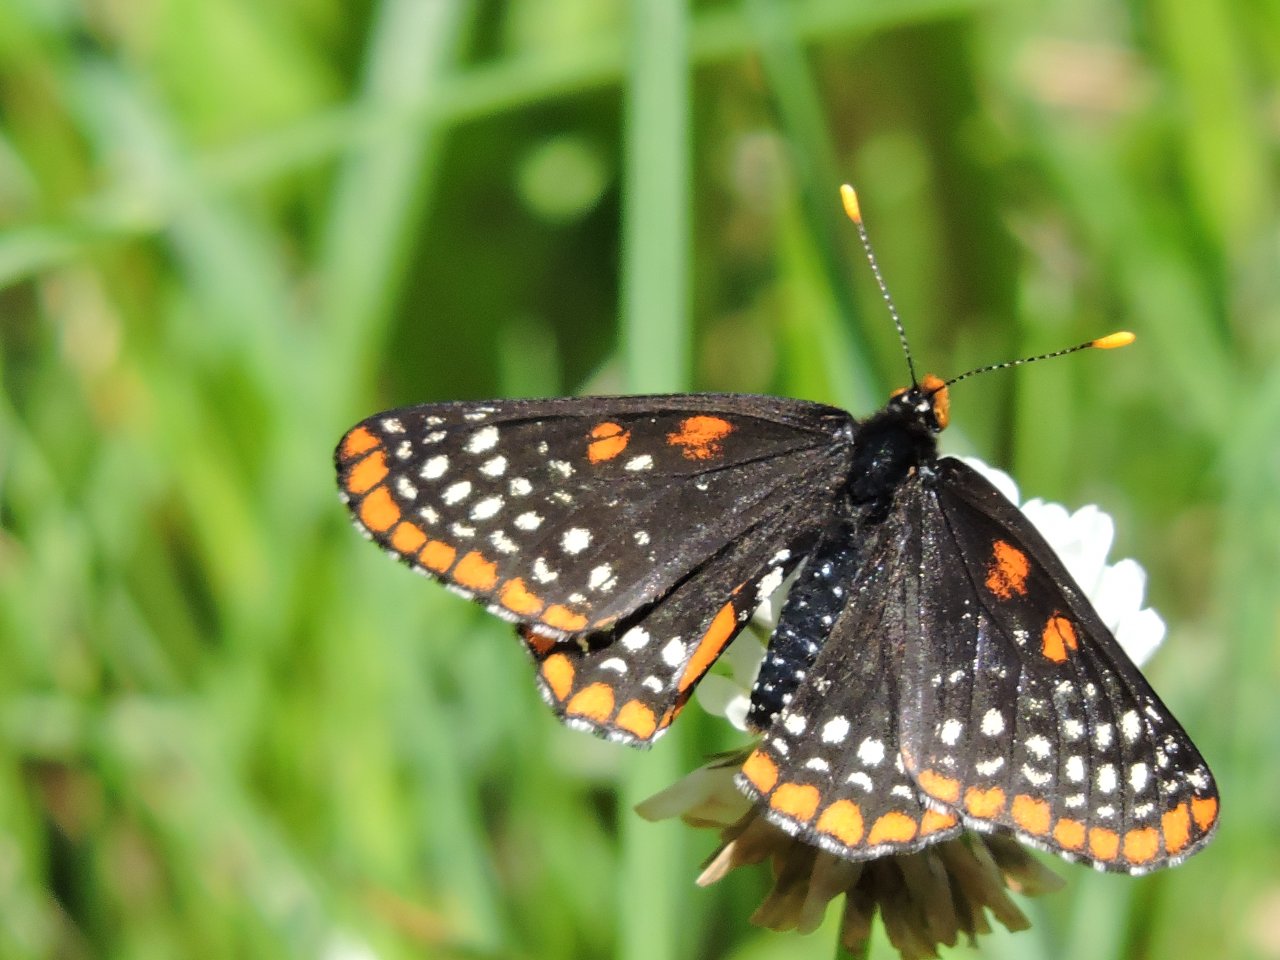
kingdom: Animalia
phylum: Arthropoda
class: Insecta
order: Lepidoptera
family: Nymphalidae
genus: Euphydryas
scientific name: Euphydryas phaeton
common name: Baltimore Checkerspot
